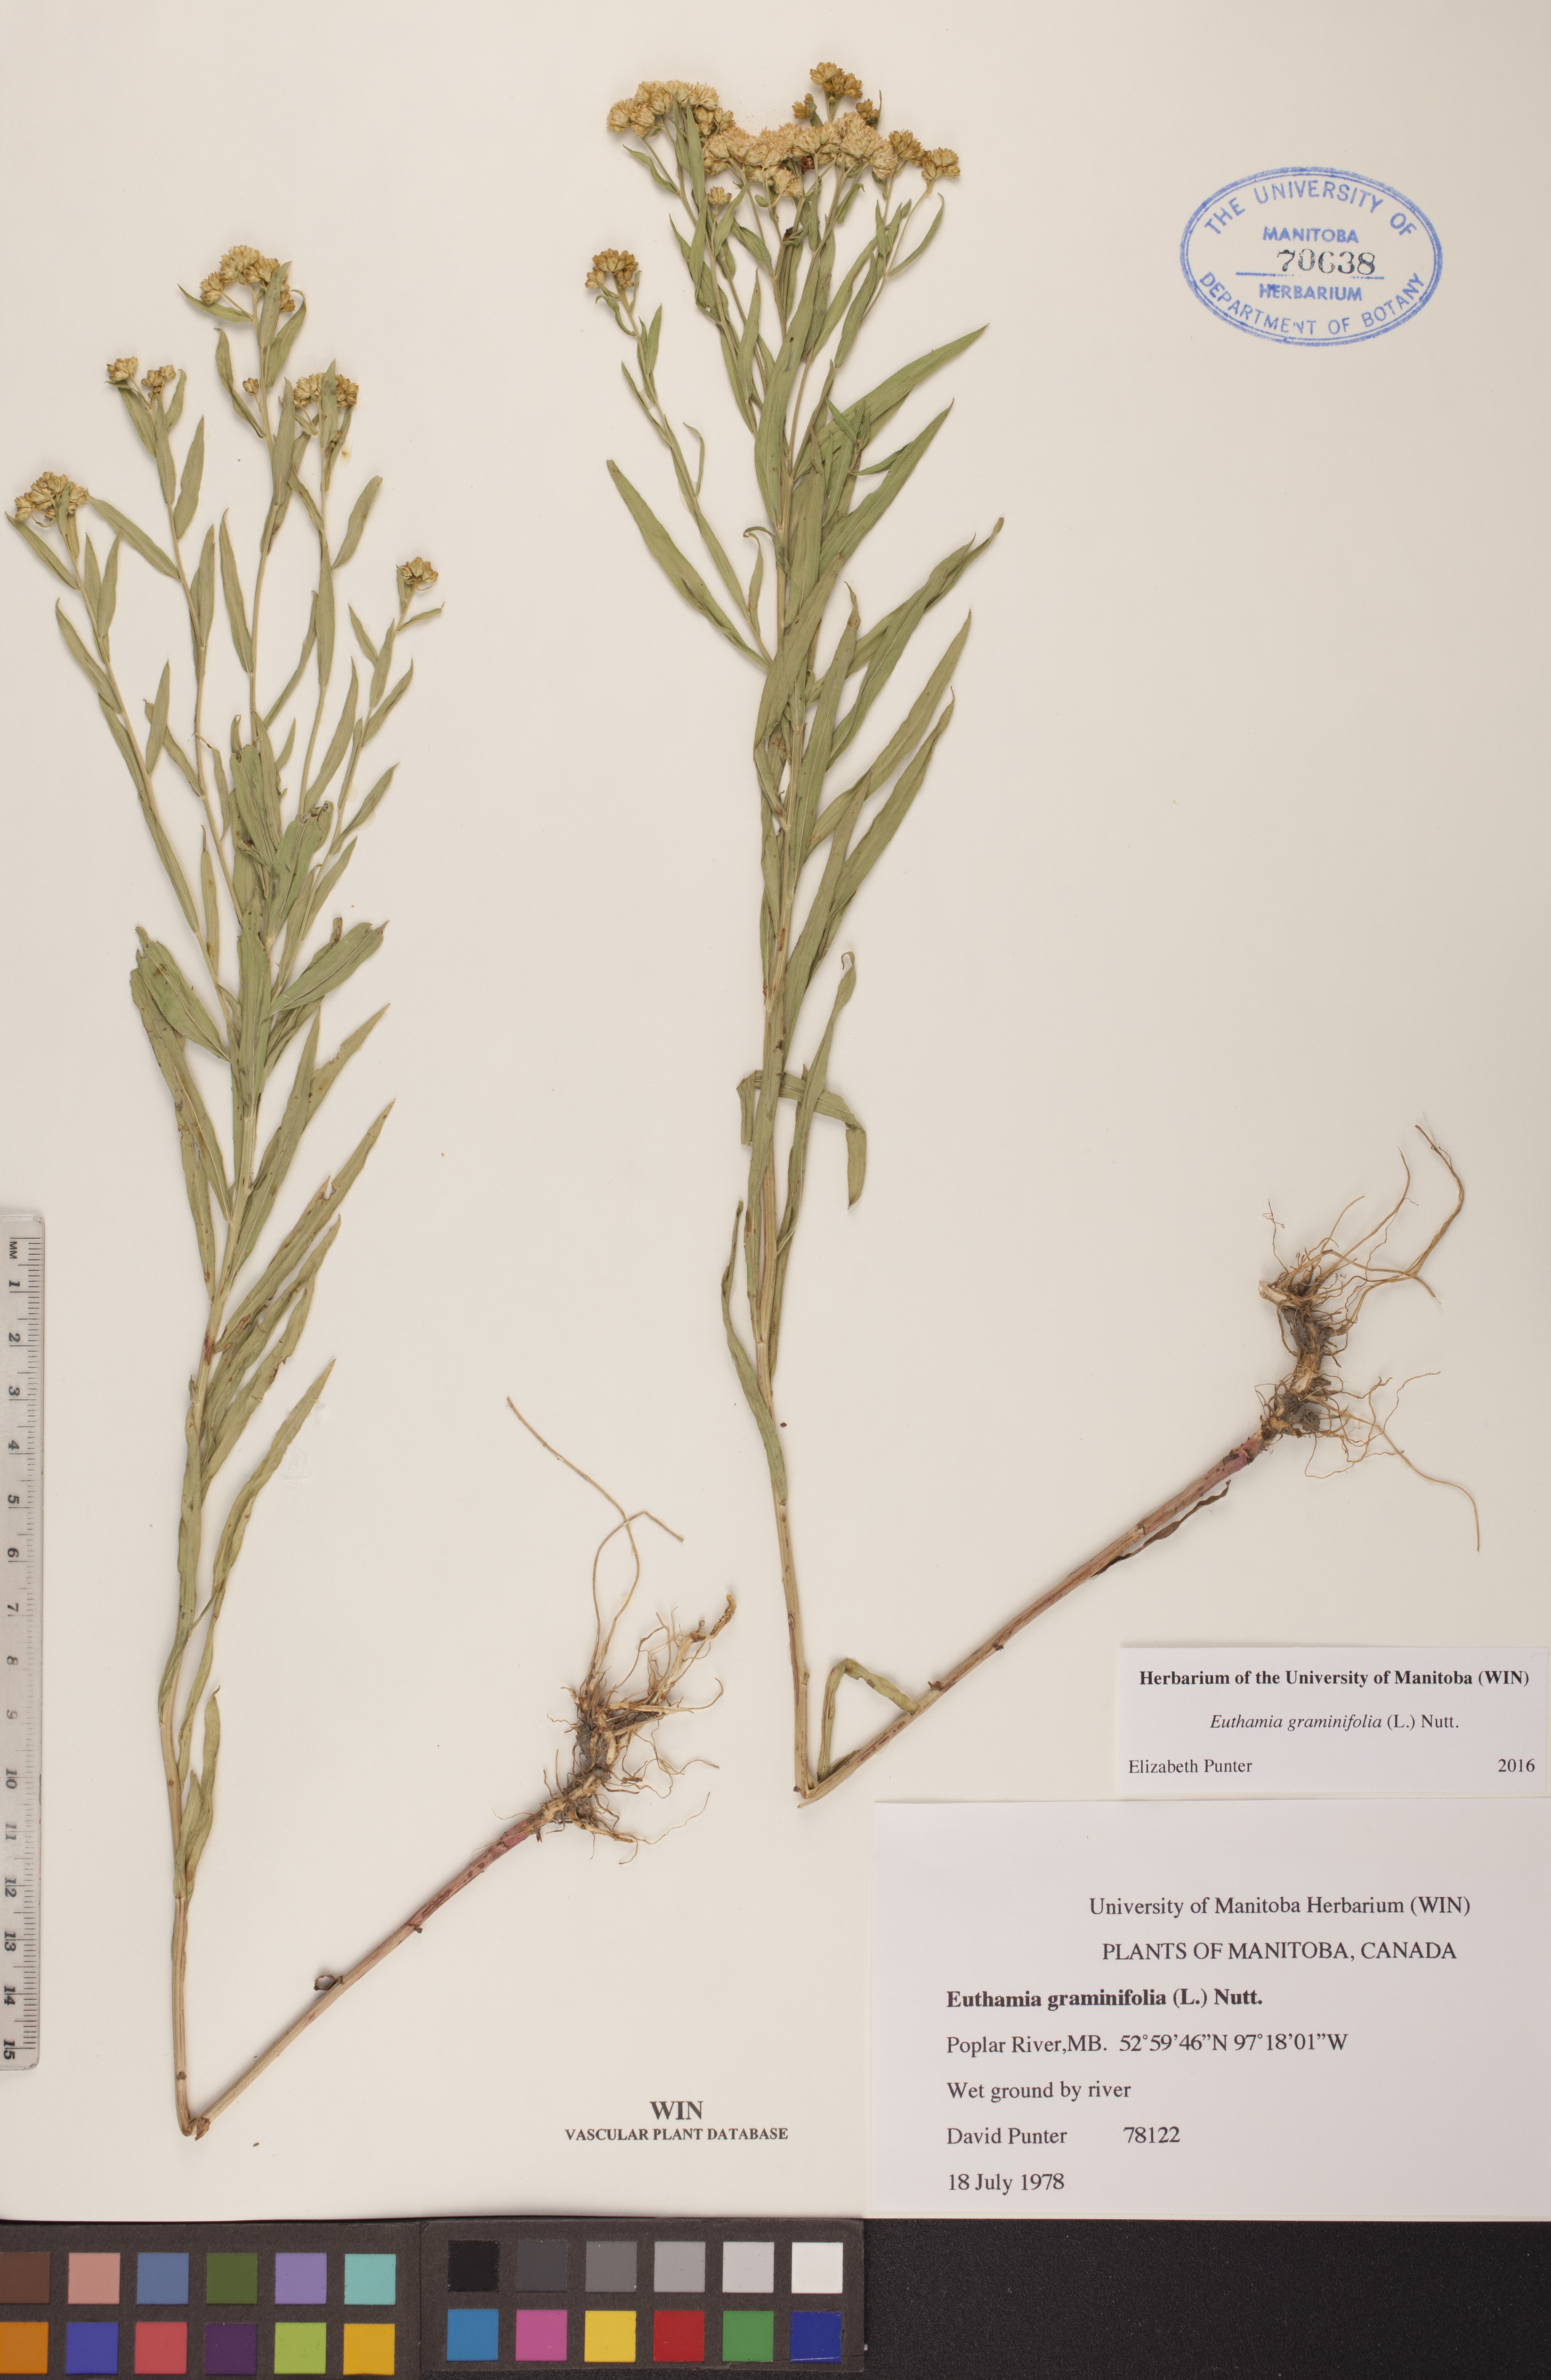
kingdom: Plantae
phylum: Tracheophyta
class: Magnoliopsida
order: Asterales
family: Asteraceae
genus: Euthamia
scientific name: Euthamia graminifolia
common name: Common goldentop
